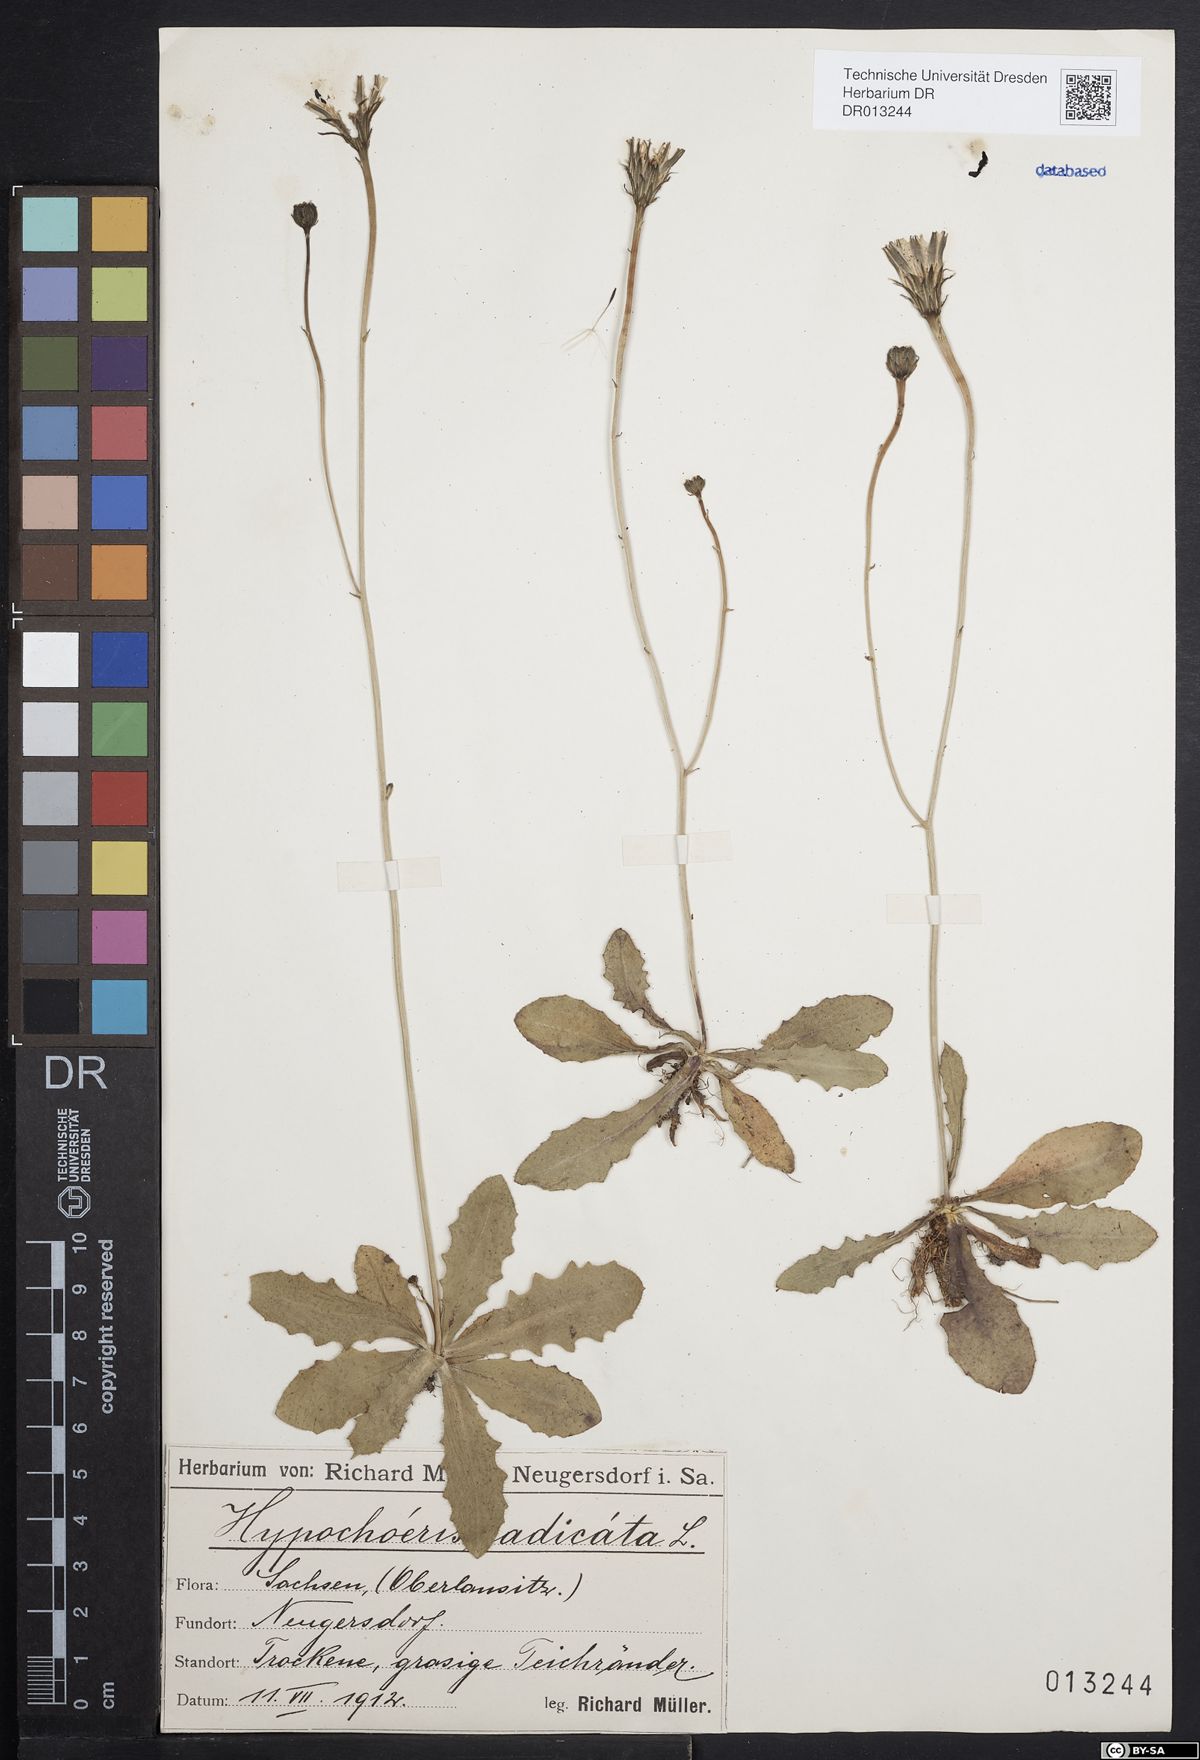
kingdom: Plantae
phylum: Tracheophyta
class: Magnoliopsida
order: Asterales
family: Asteraceae
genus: Hypochaeris
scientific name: Hypochaeris radicata
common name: Flatweed
